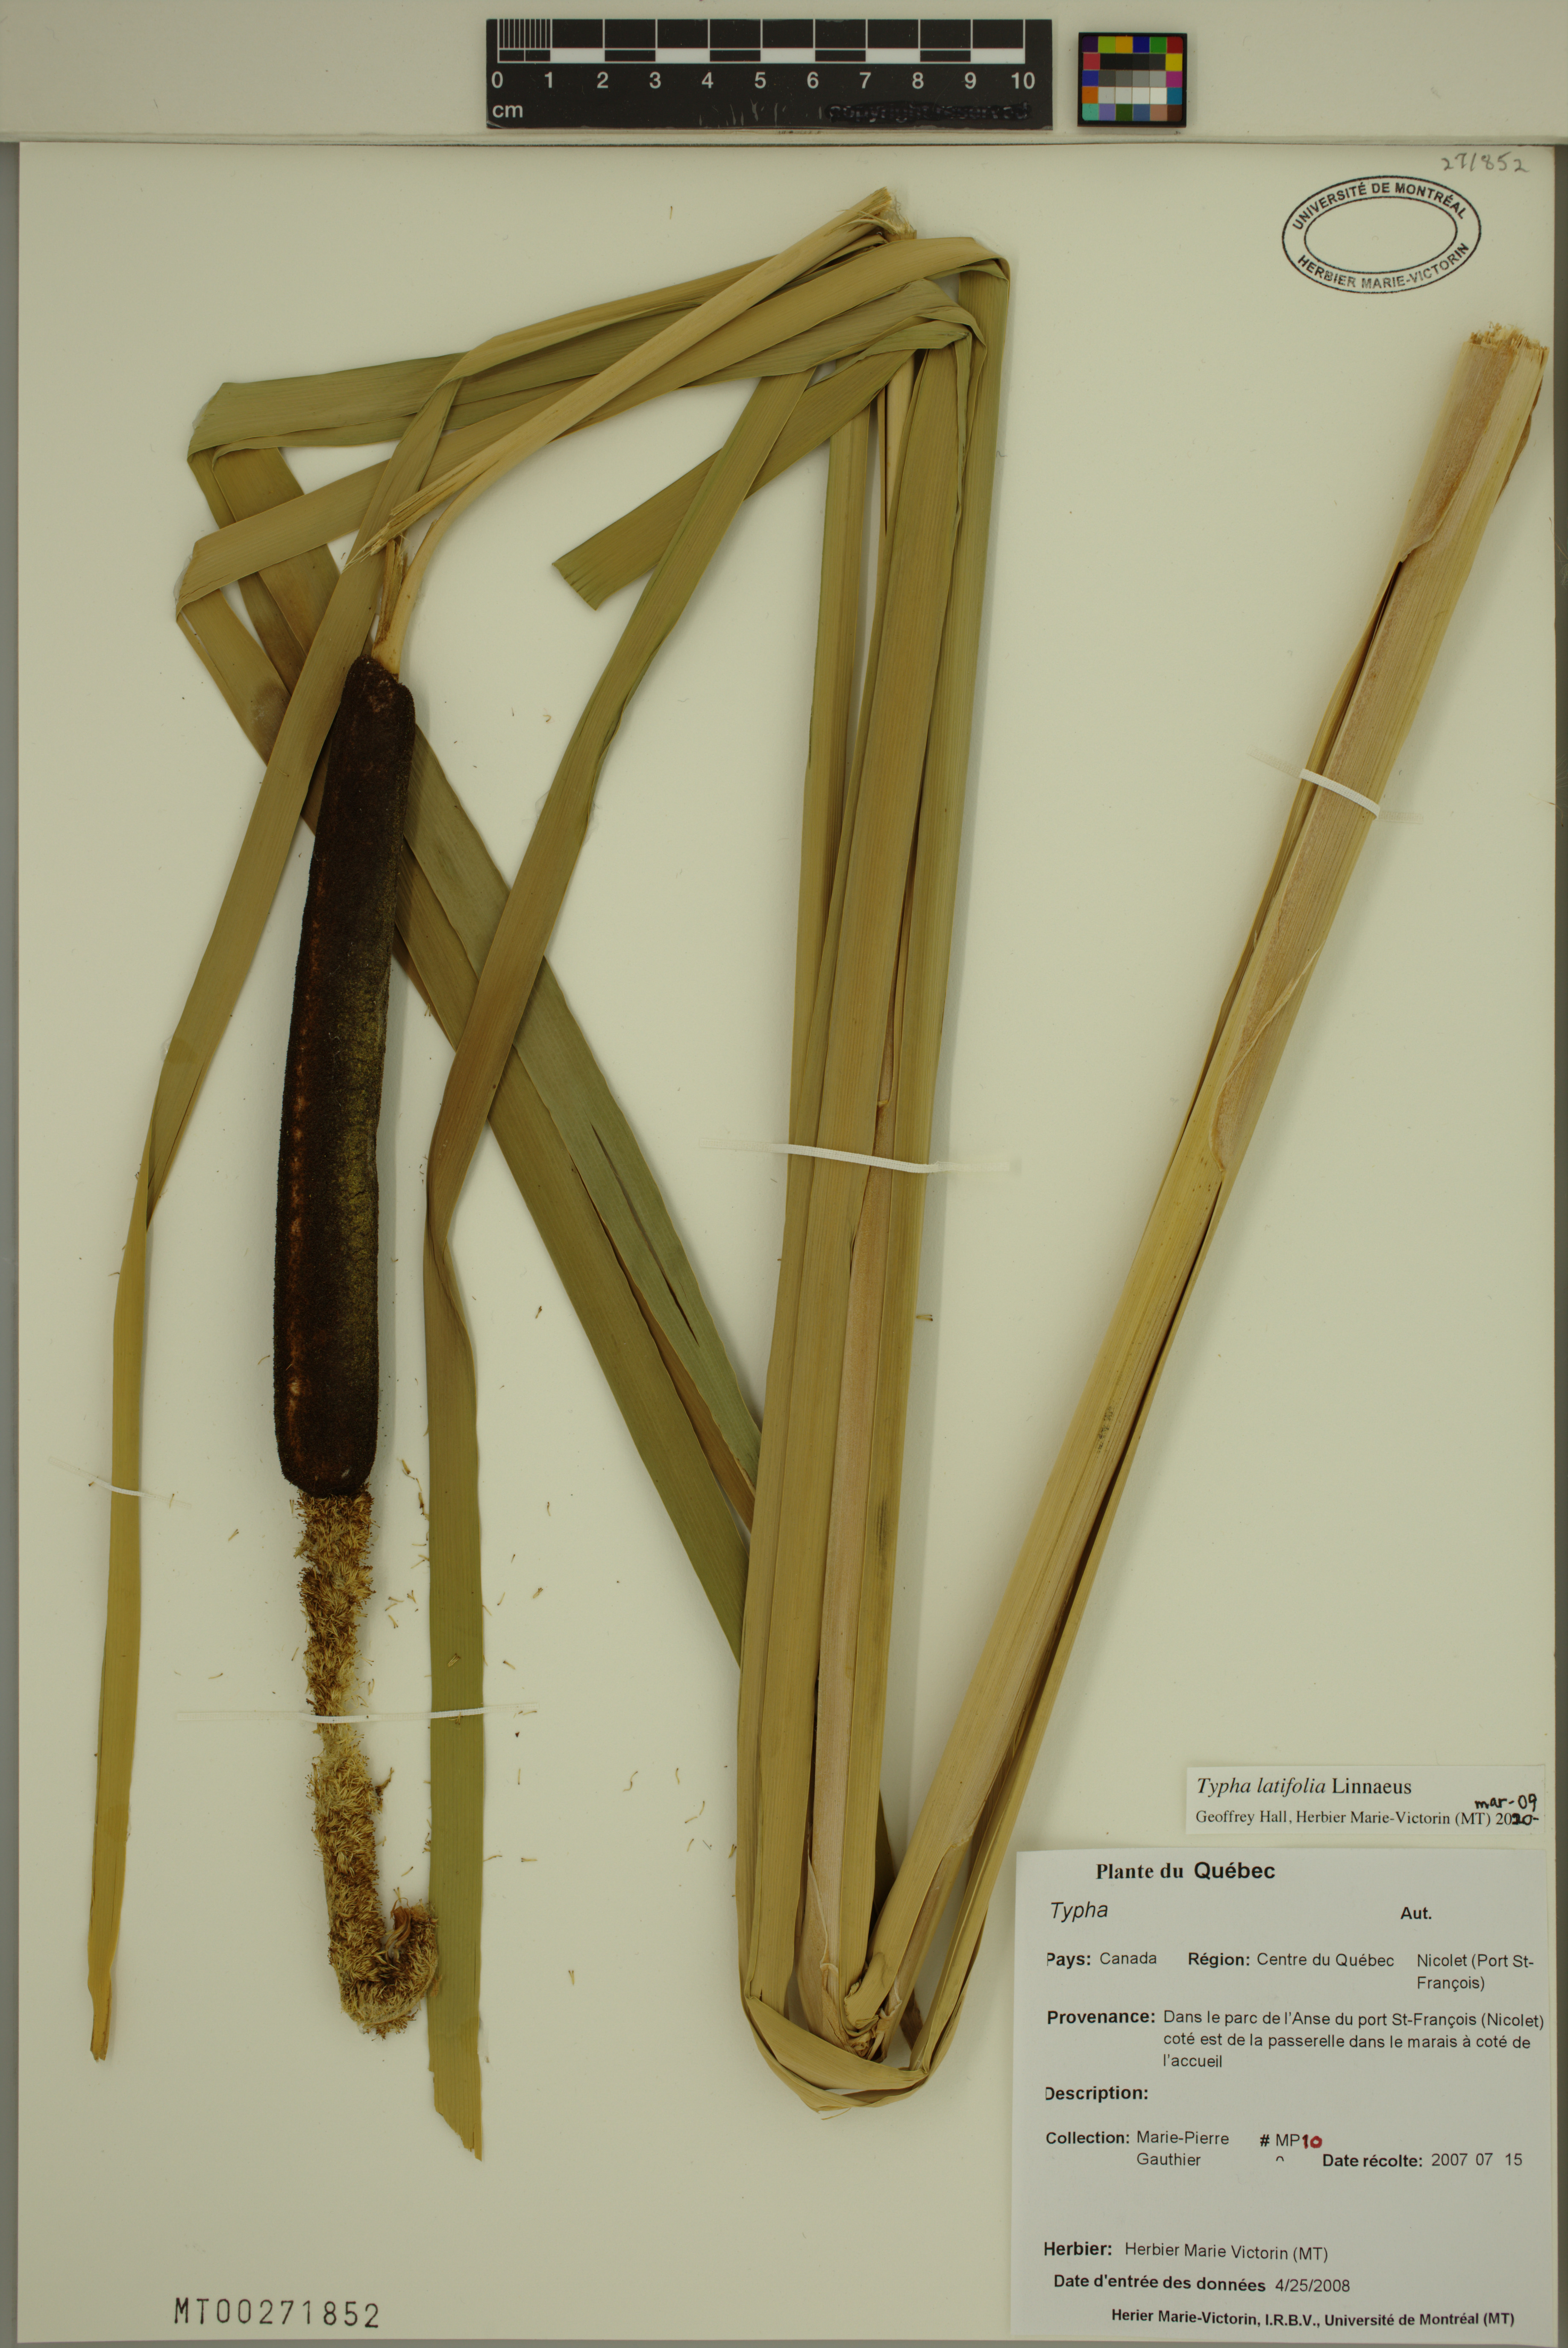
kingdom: Plantae
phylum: Tracheophyta
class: Liliopsida
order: Poales
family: Typhaceae
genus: Typha
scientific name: Typha latifolia
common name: Broadleaf cattail
